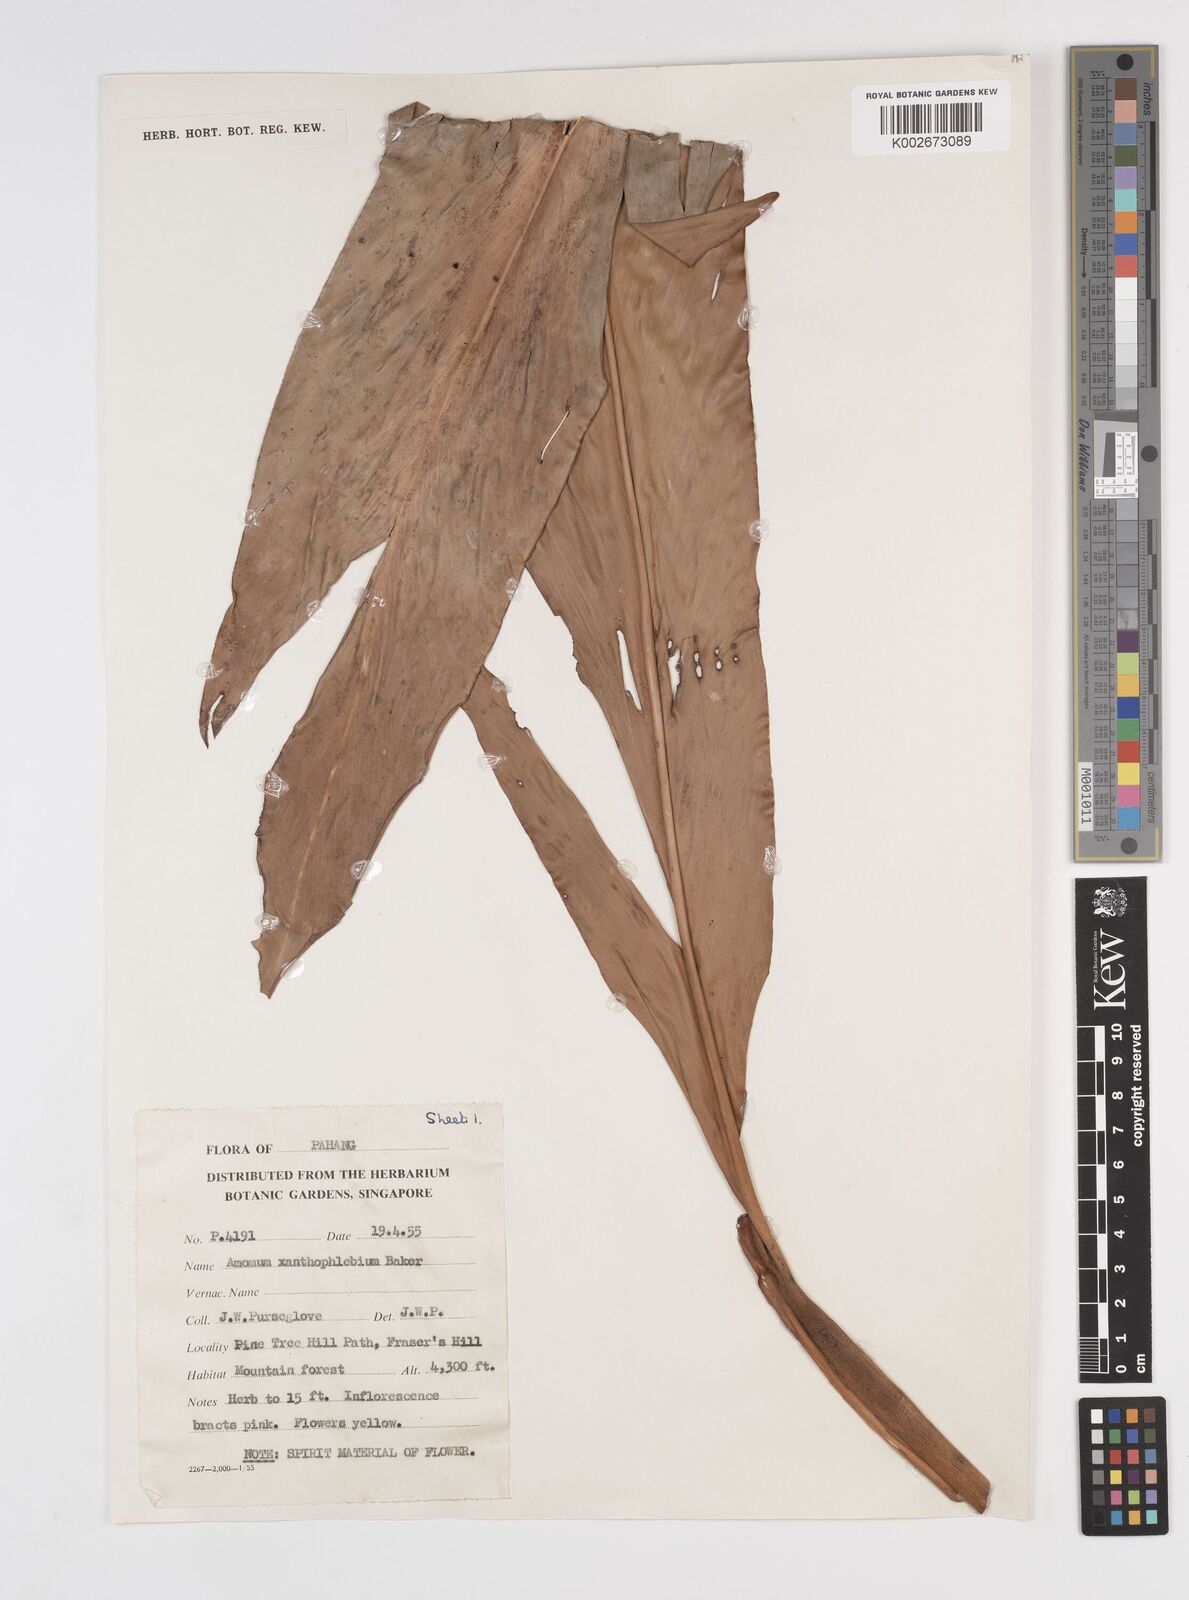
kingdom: Plantae
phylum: Tracheophyta
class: Liliopsida
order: Zingiberales
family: Zingiberaceae
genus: Conamomum
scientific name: Conamomum xanthophlebium
